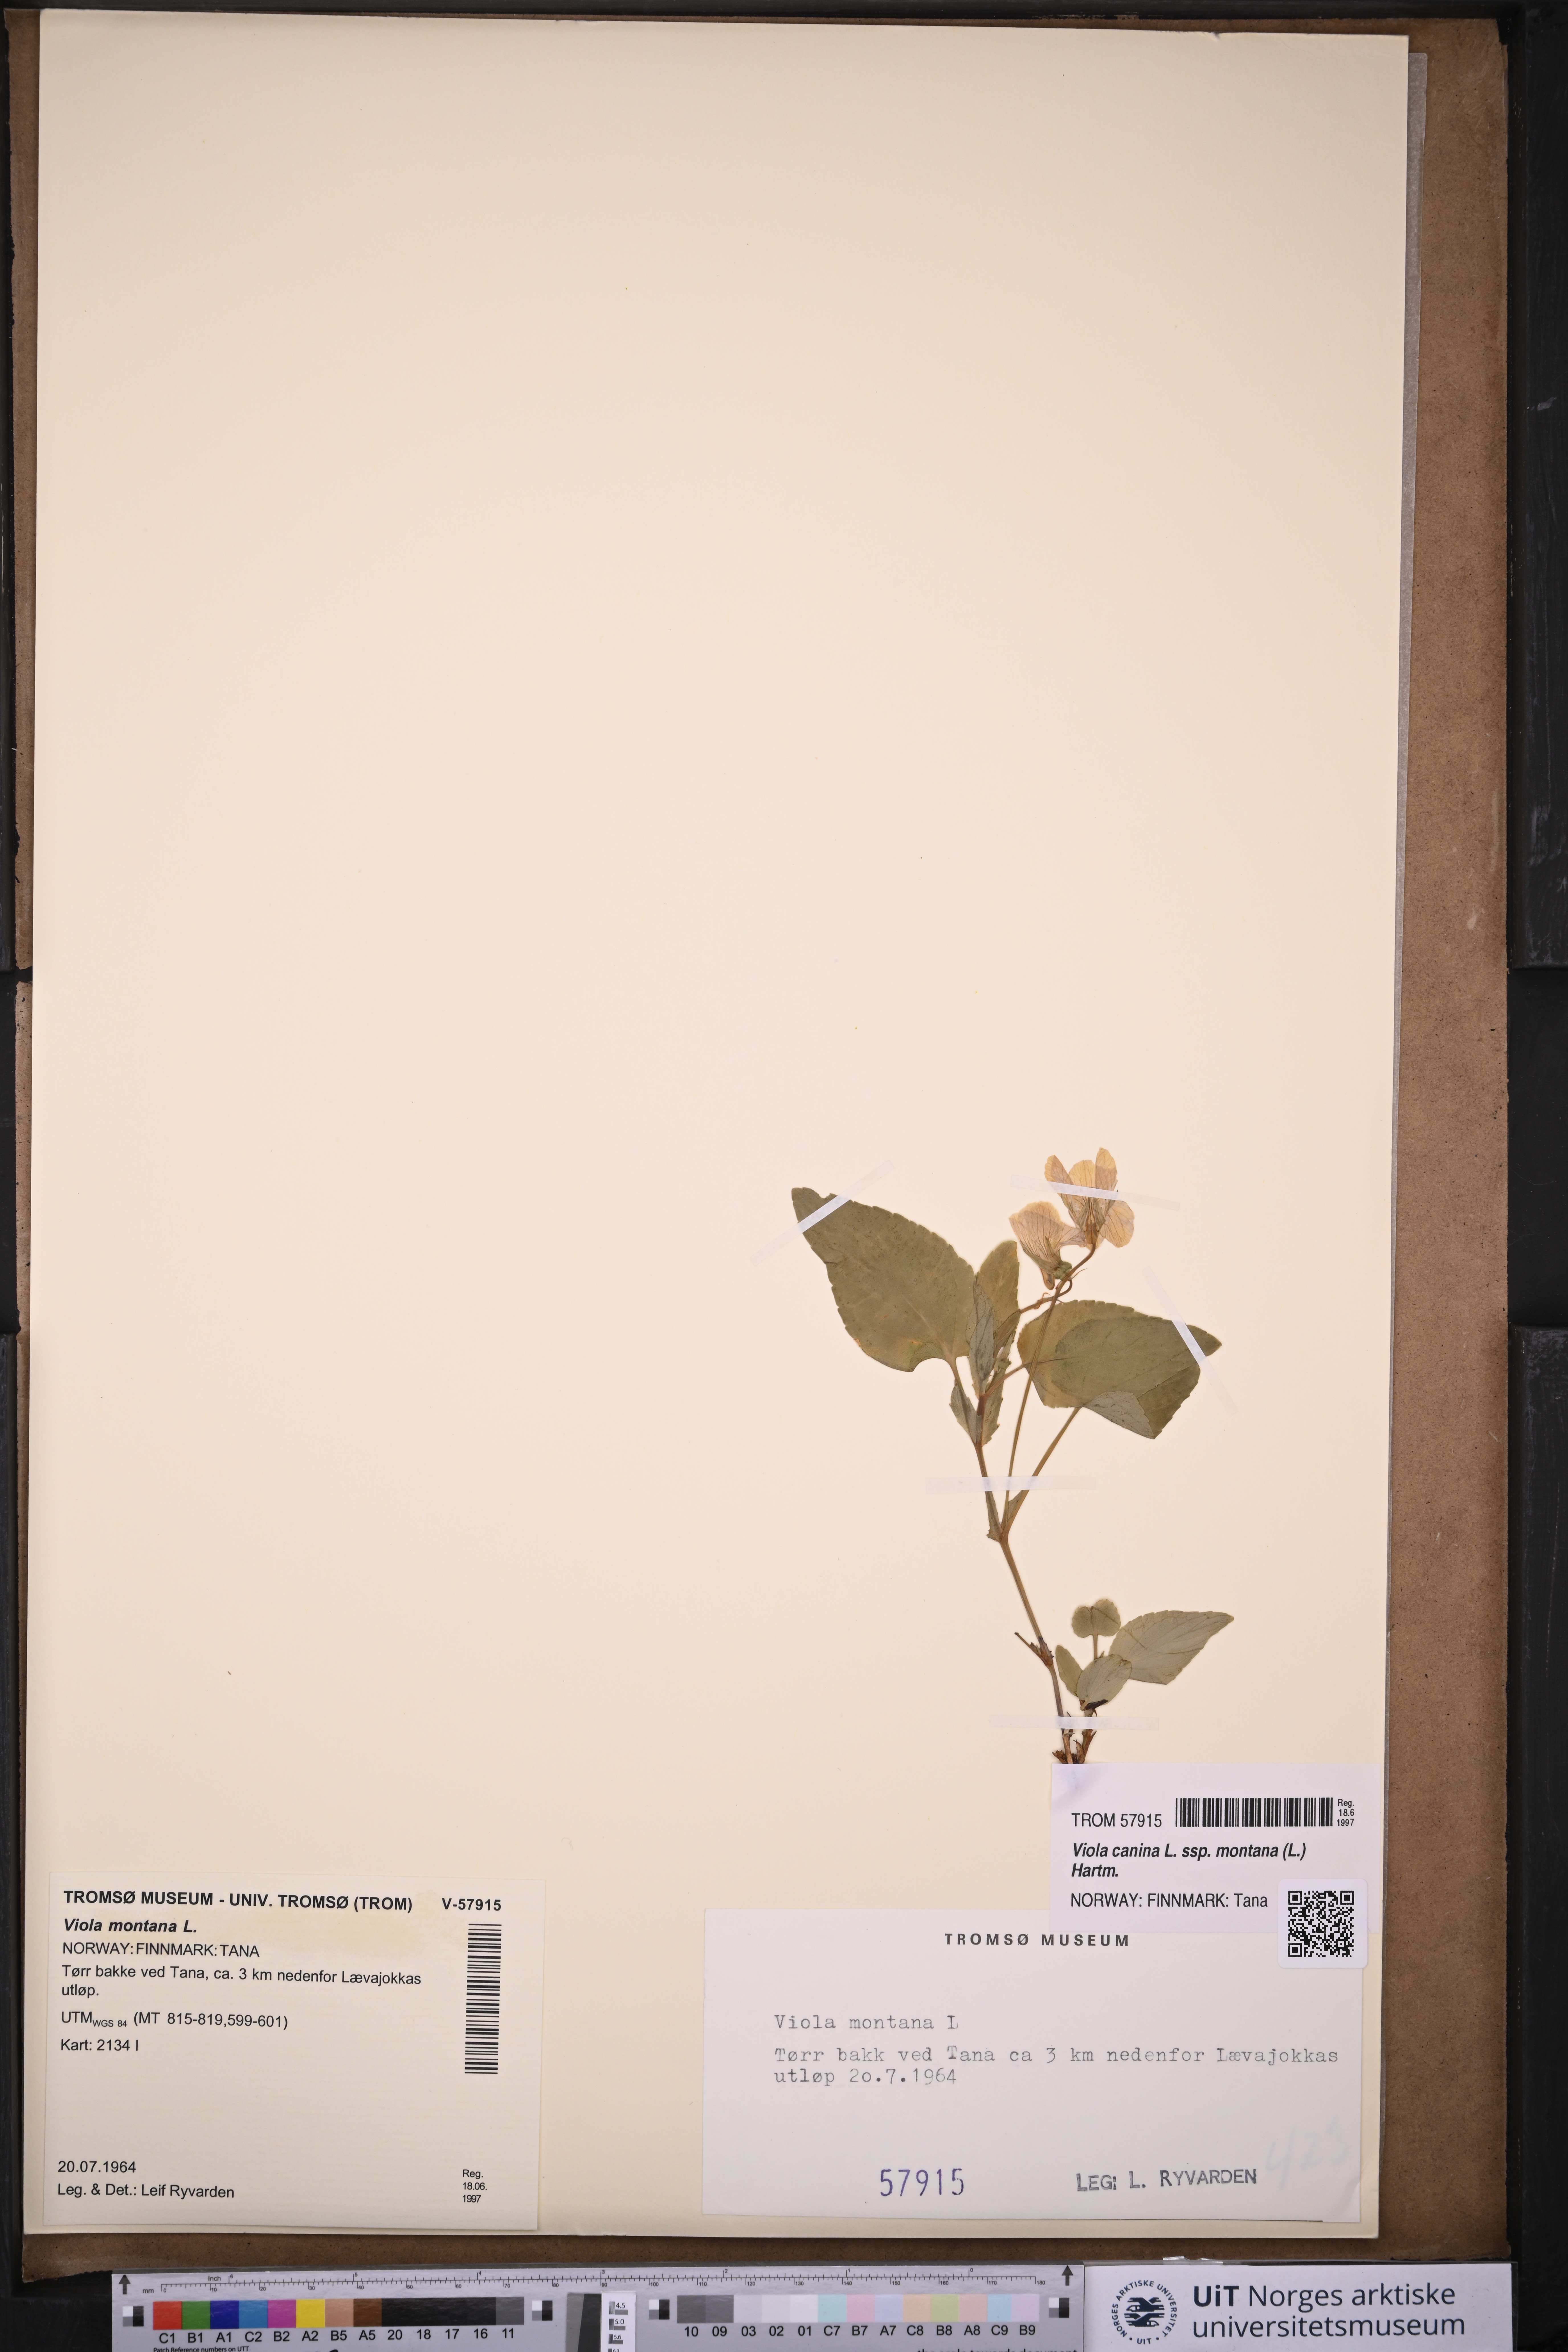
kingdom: Plantae
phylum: Tracheophyta
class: Magnoliopsida
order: Malpighiales
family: Violaceae
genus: Viola
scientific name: Viola ruppii
